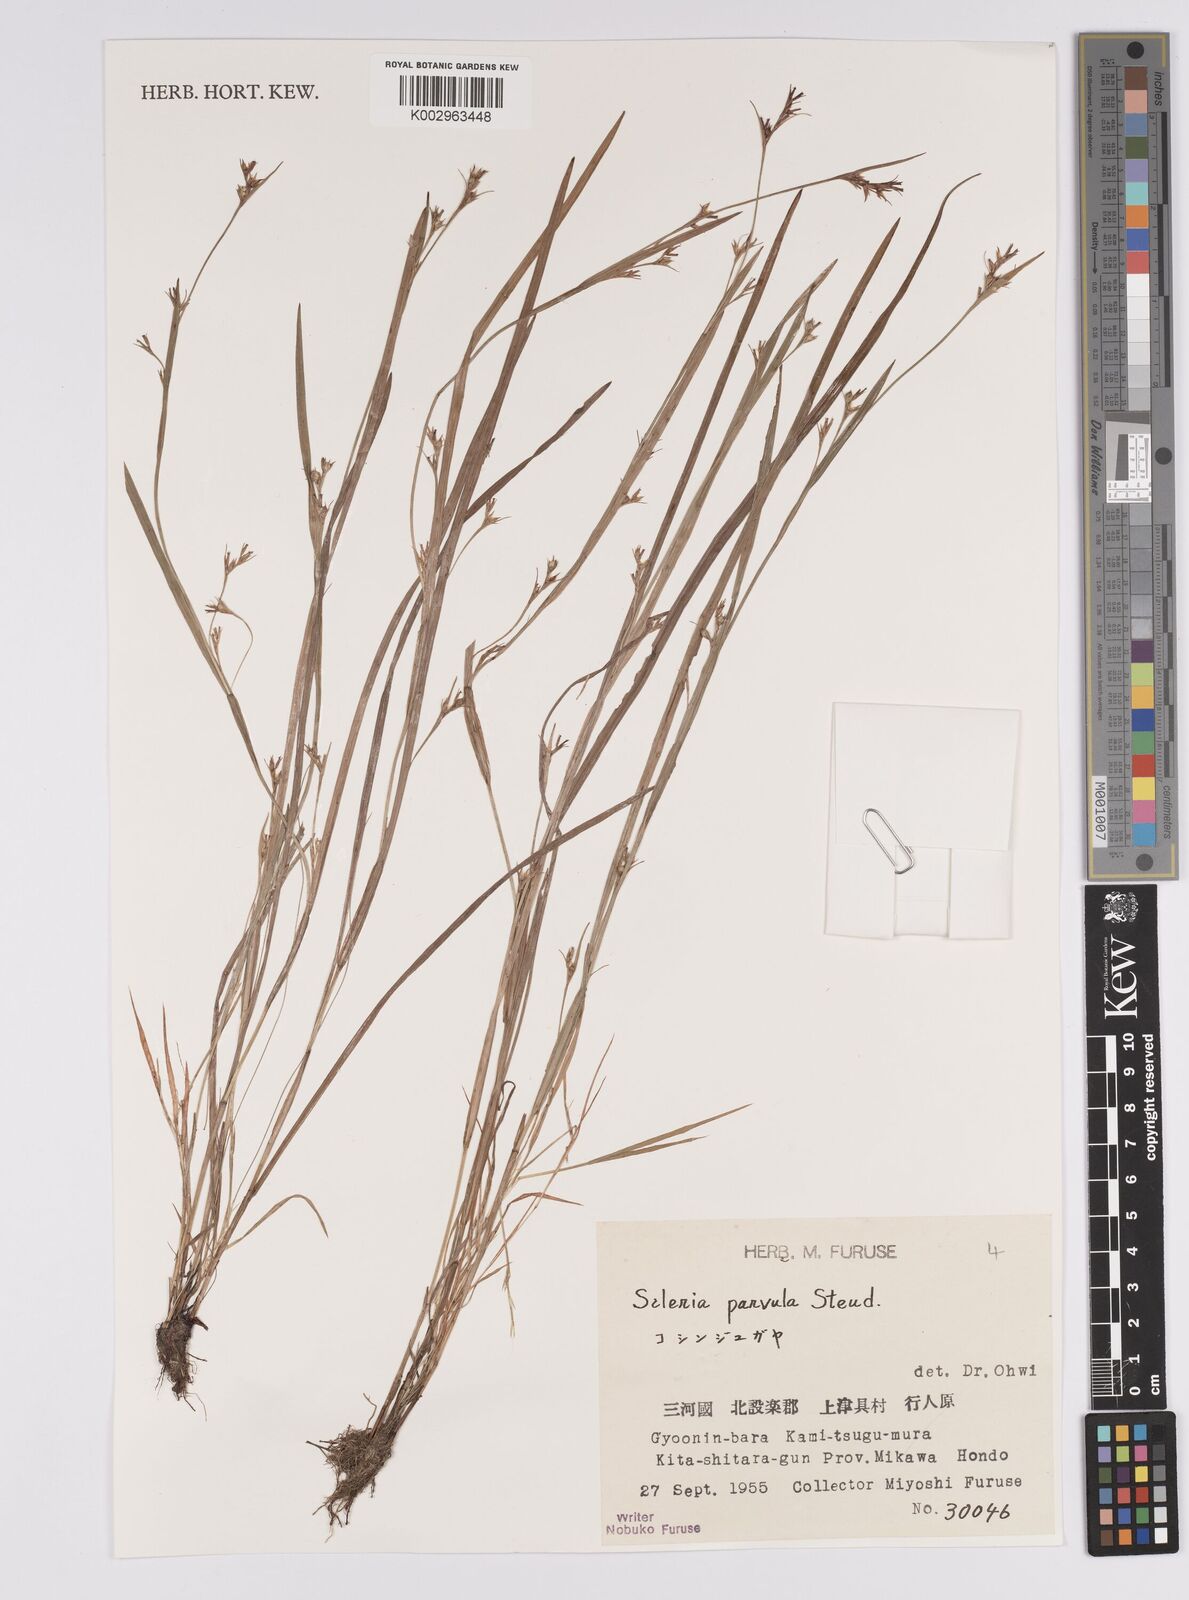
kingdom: Plantae
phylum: Tracheophyta
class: Liliopsida
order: Poales
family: Cyperaceae
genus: Scleria
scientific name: Scleria parvula
